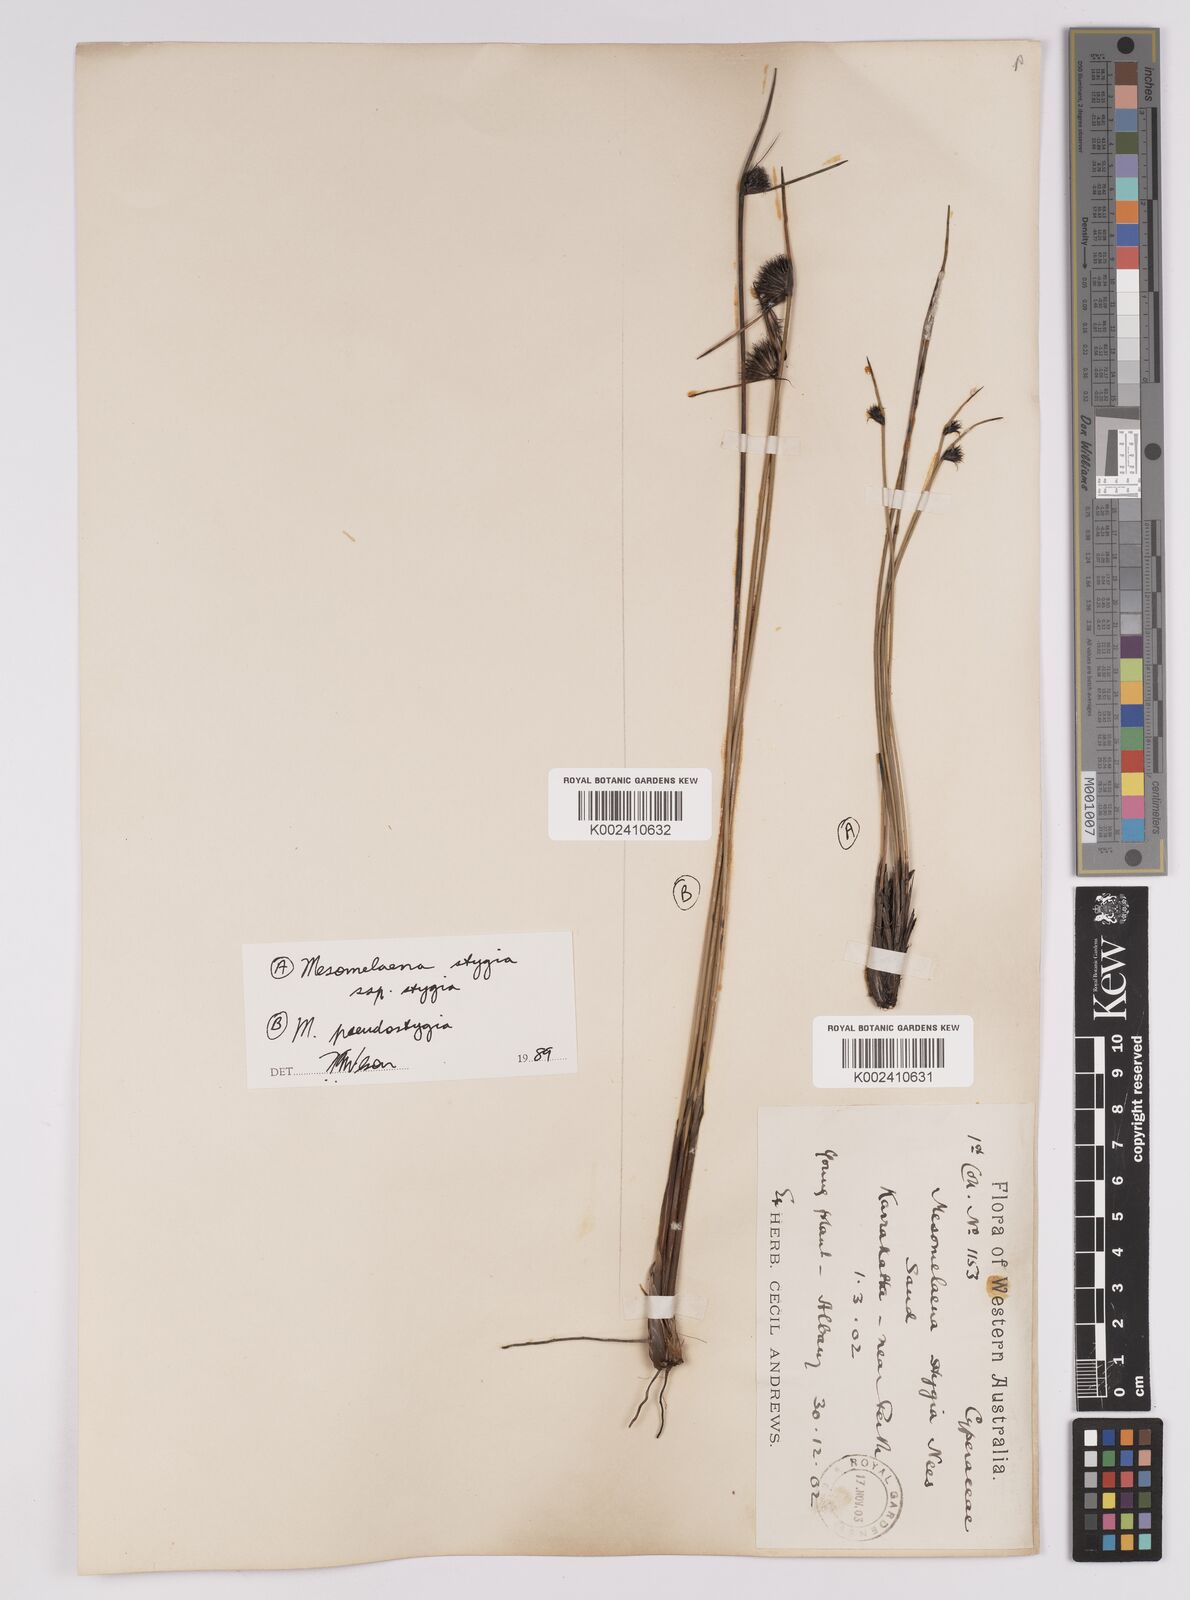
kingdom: Plantae
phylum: Tracheophyta
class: Liliopsida
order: Poales
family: Cyperaceae
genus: Mesomelaena
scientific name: Mesomelaena stygia
